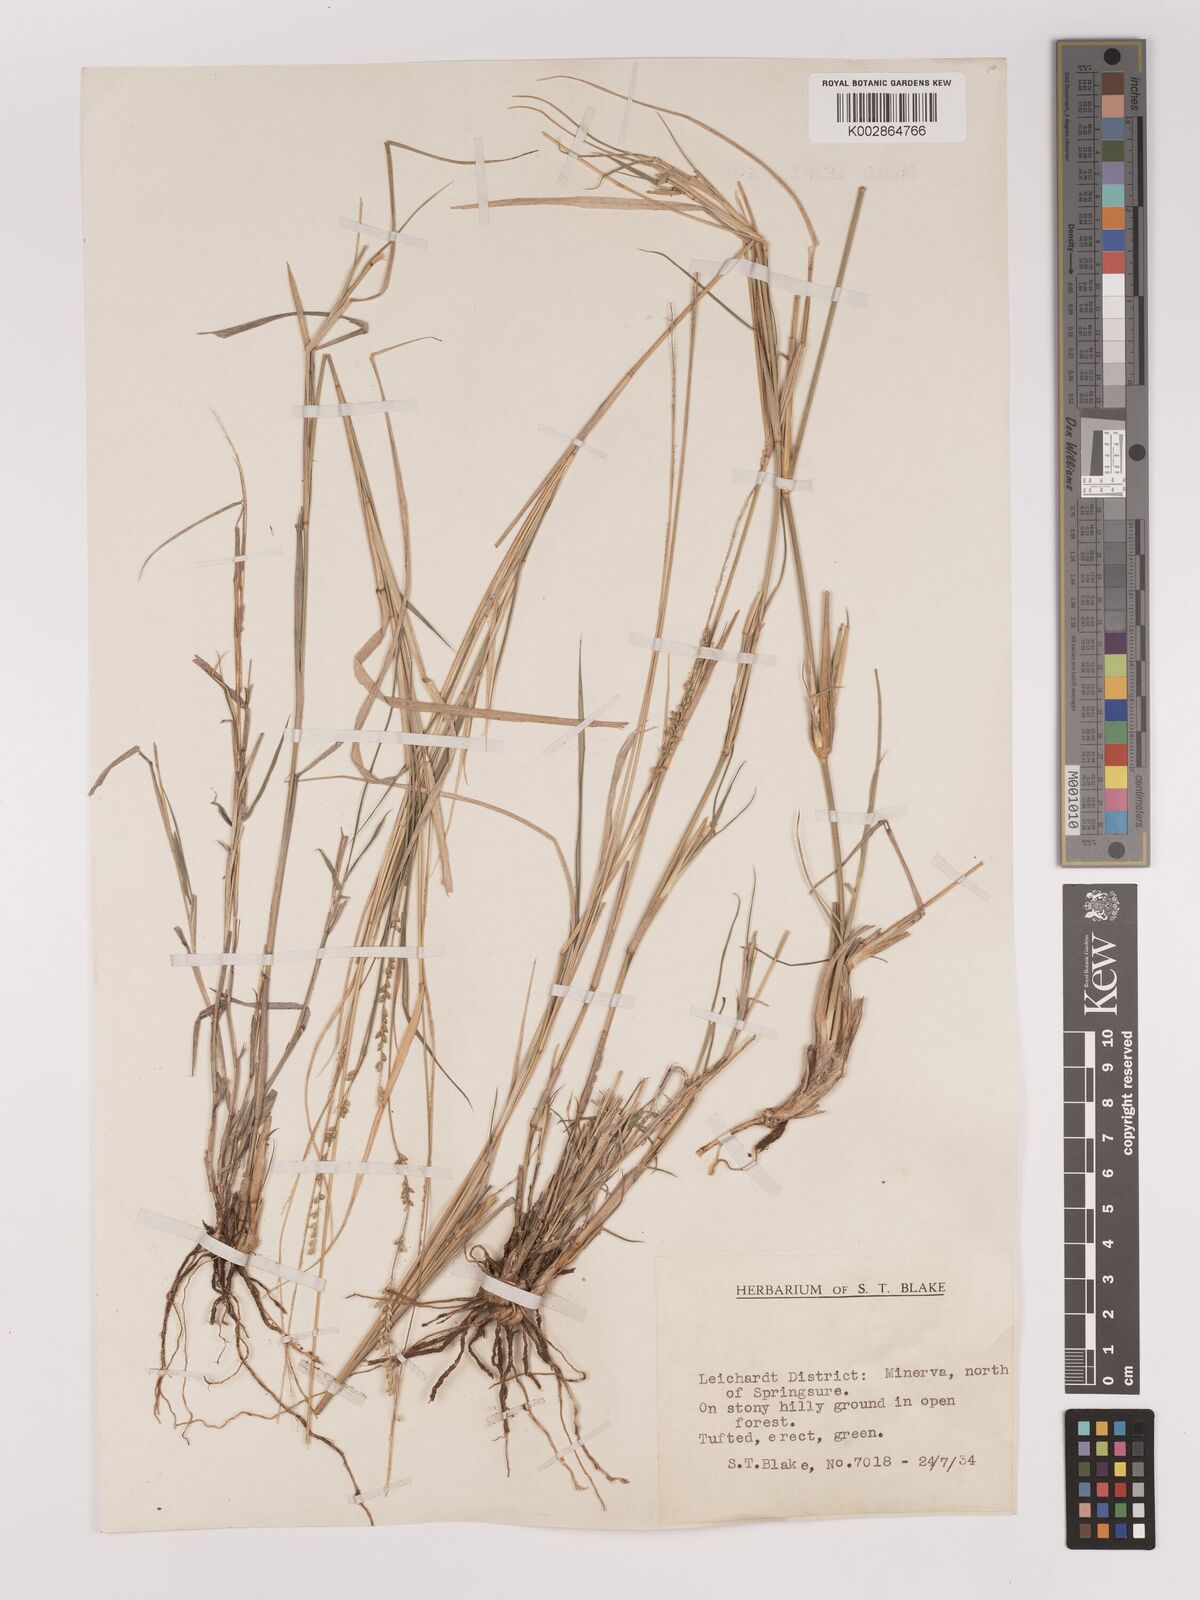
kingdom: Plantae
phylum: Tracheophyta
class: Liliopsida
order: Poales
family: Poaceae
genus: Setaria
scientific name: Setaria constricta
